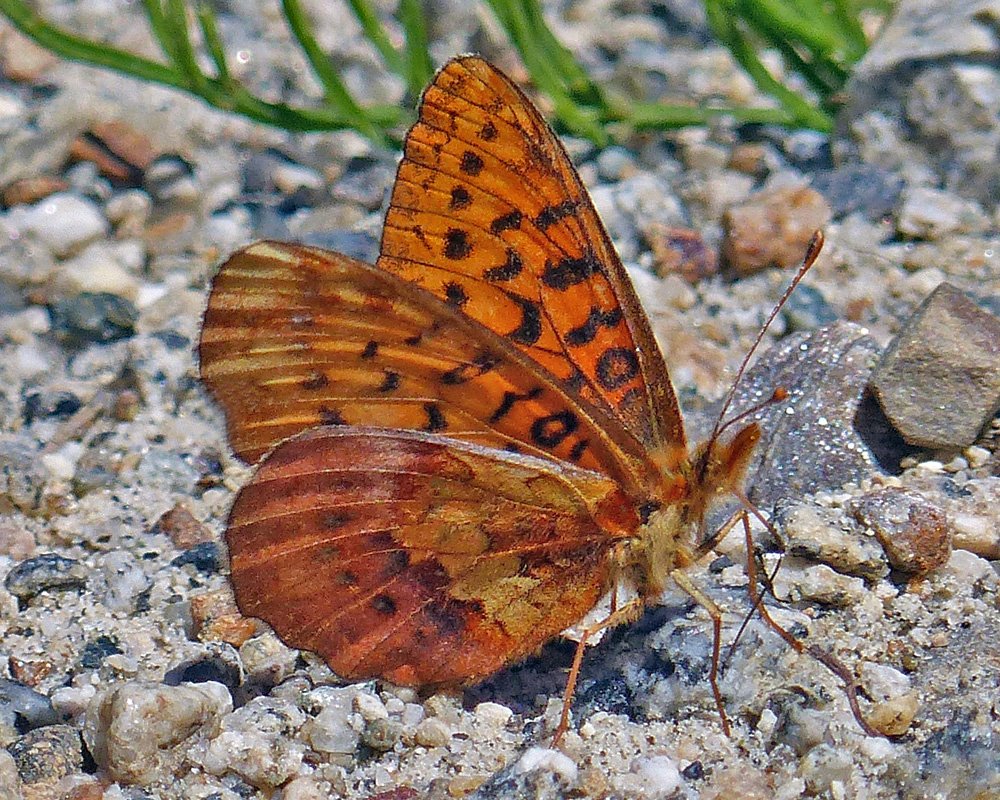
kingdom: Animalia
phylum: Arthropoda
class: Insecta
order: Lepidoptera
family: Nymphalidae
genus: Boloria
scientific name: Boloria epithore
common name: Pacific Fritillary
